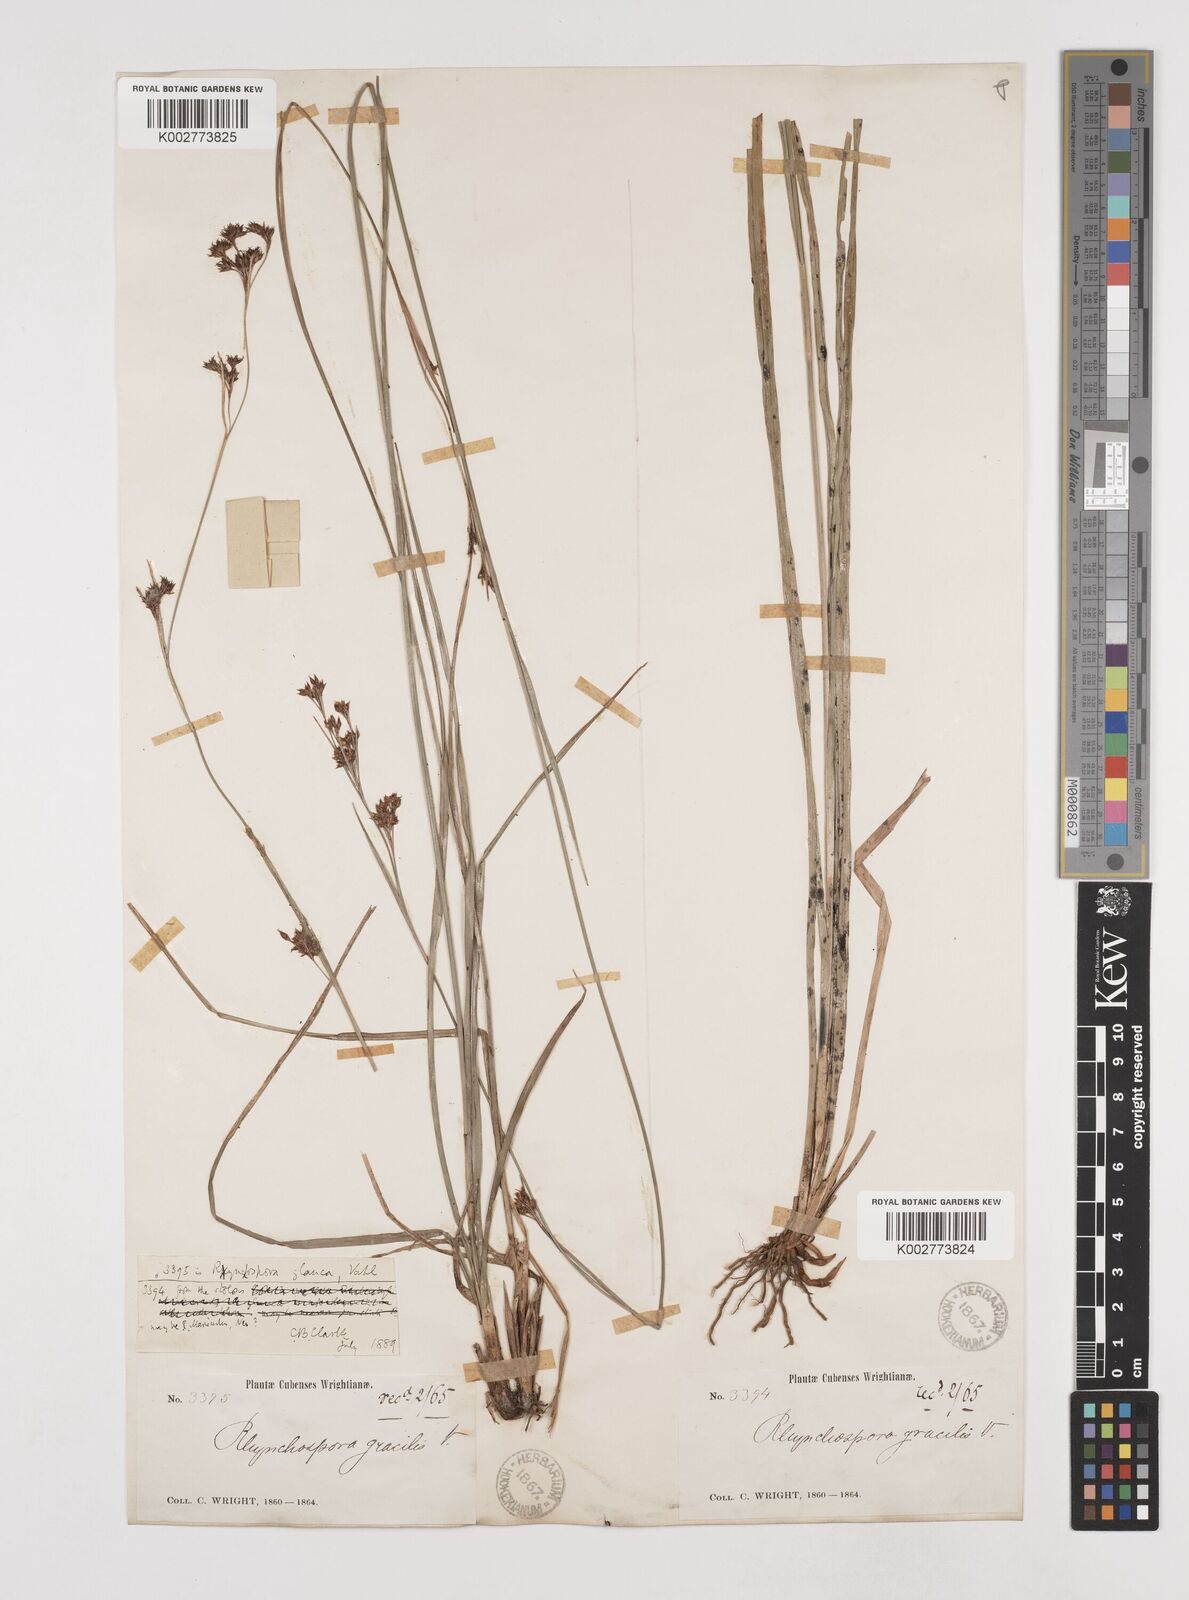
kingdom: Plantae
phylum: Tracheophyta
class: Liliopsida
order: Poales
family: Cyperaceae
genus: Rhynchospora
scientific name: Rhynchospora rugosa
